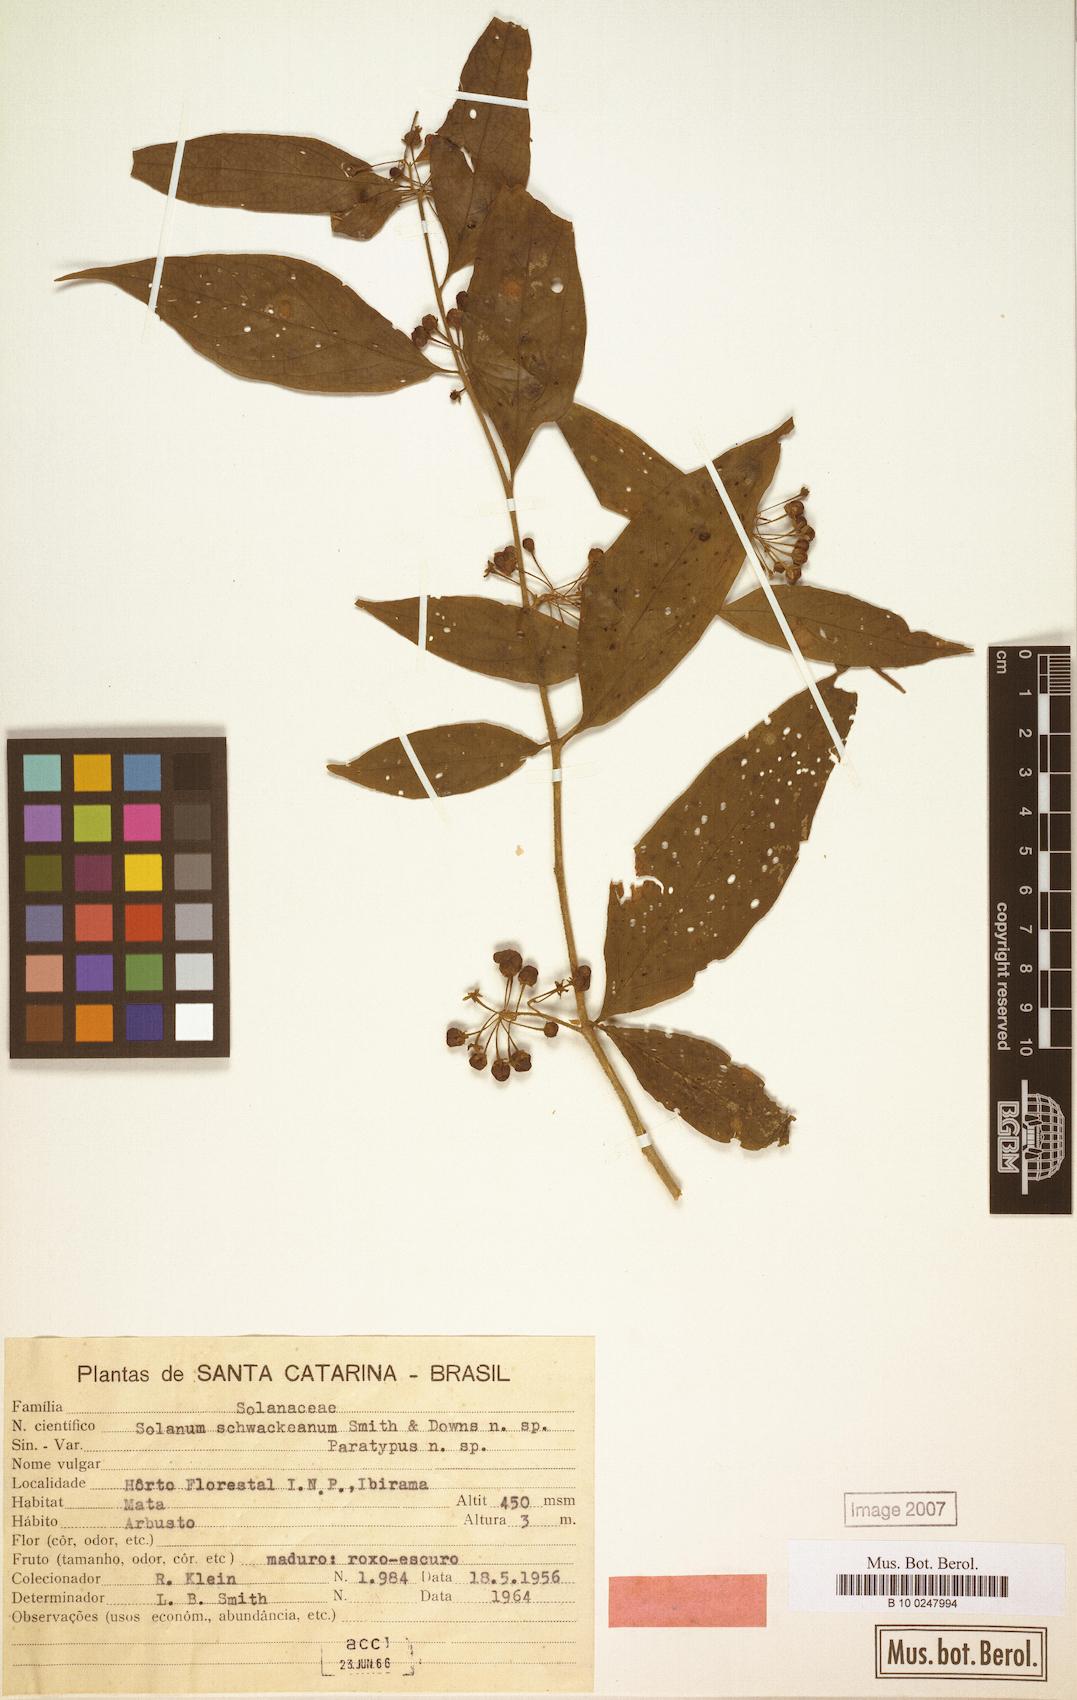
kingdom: Plantae
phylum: Tracheophyta
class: Magnoliopsida
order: Solanales
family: Solanaceae
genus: Solanum
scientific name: Solanum schwackeanum
